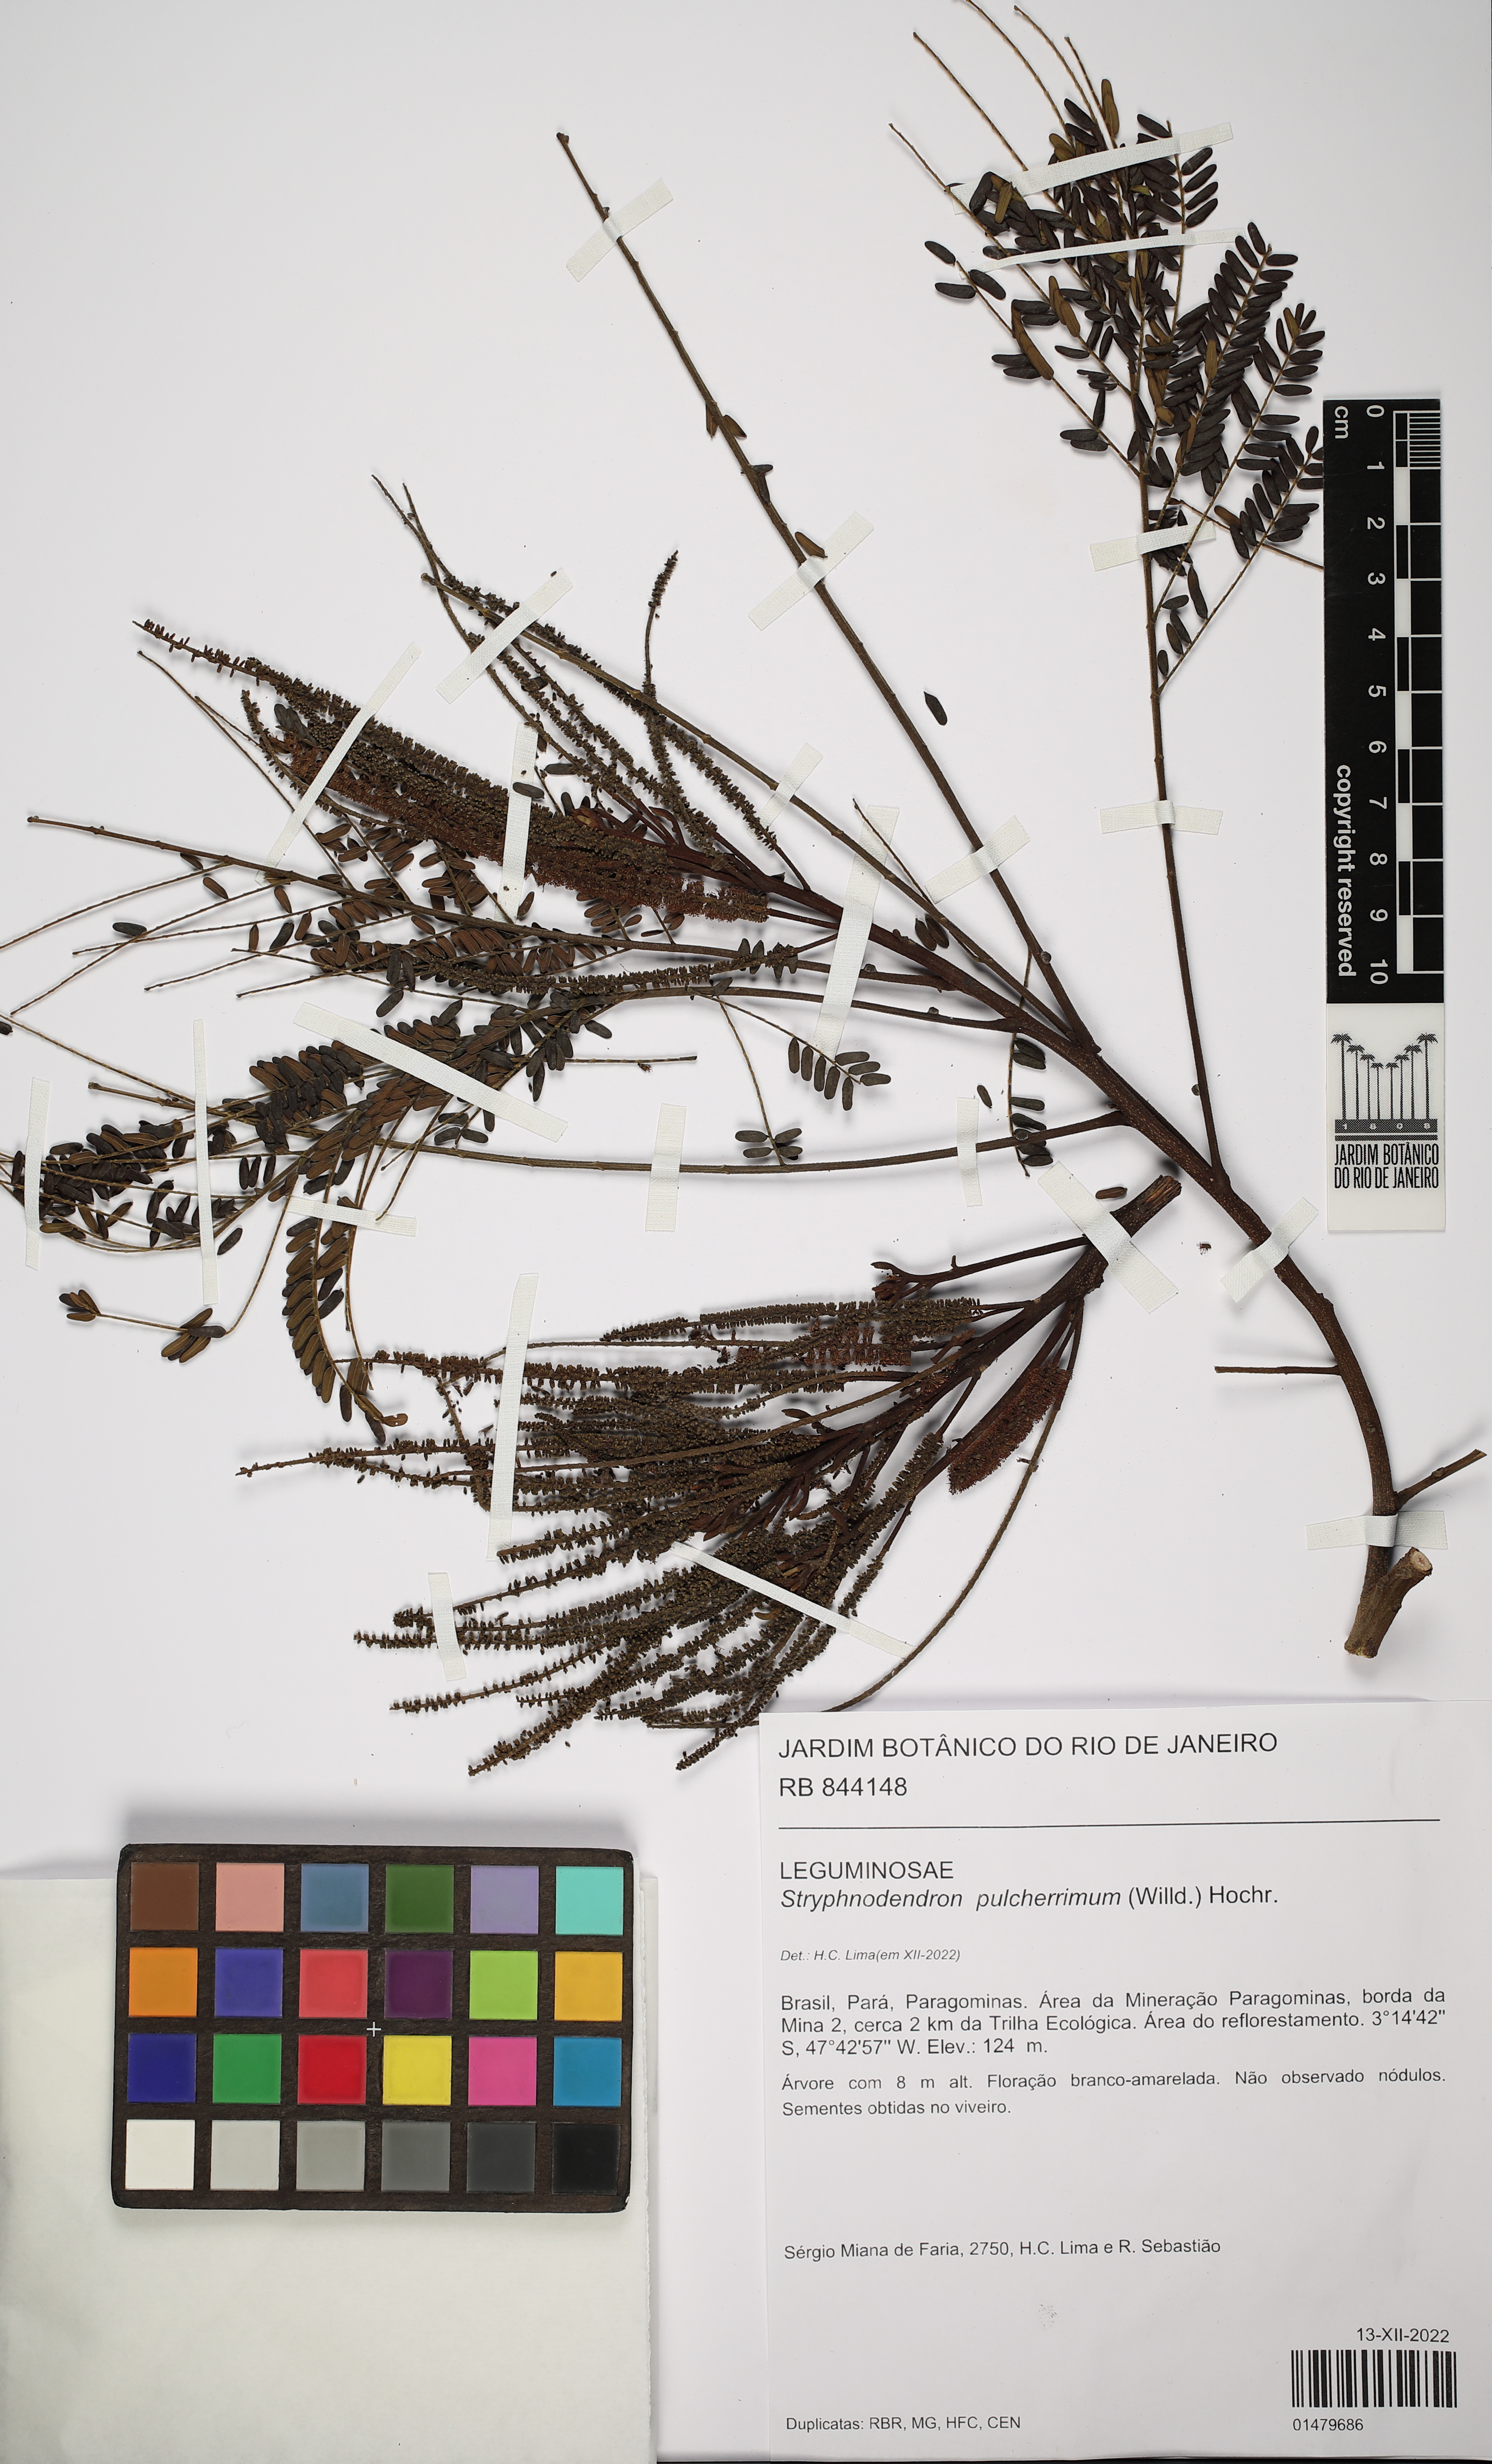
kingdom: Plantae
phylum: Tracheophyta
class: Magnoliopsida
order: Fabales
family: Fabaceae
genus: Stryphnodendron
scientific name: Stryphnodendron pulcherrimum
